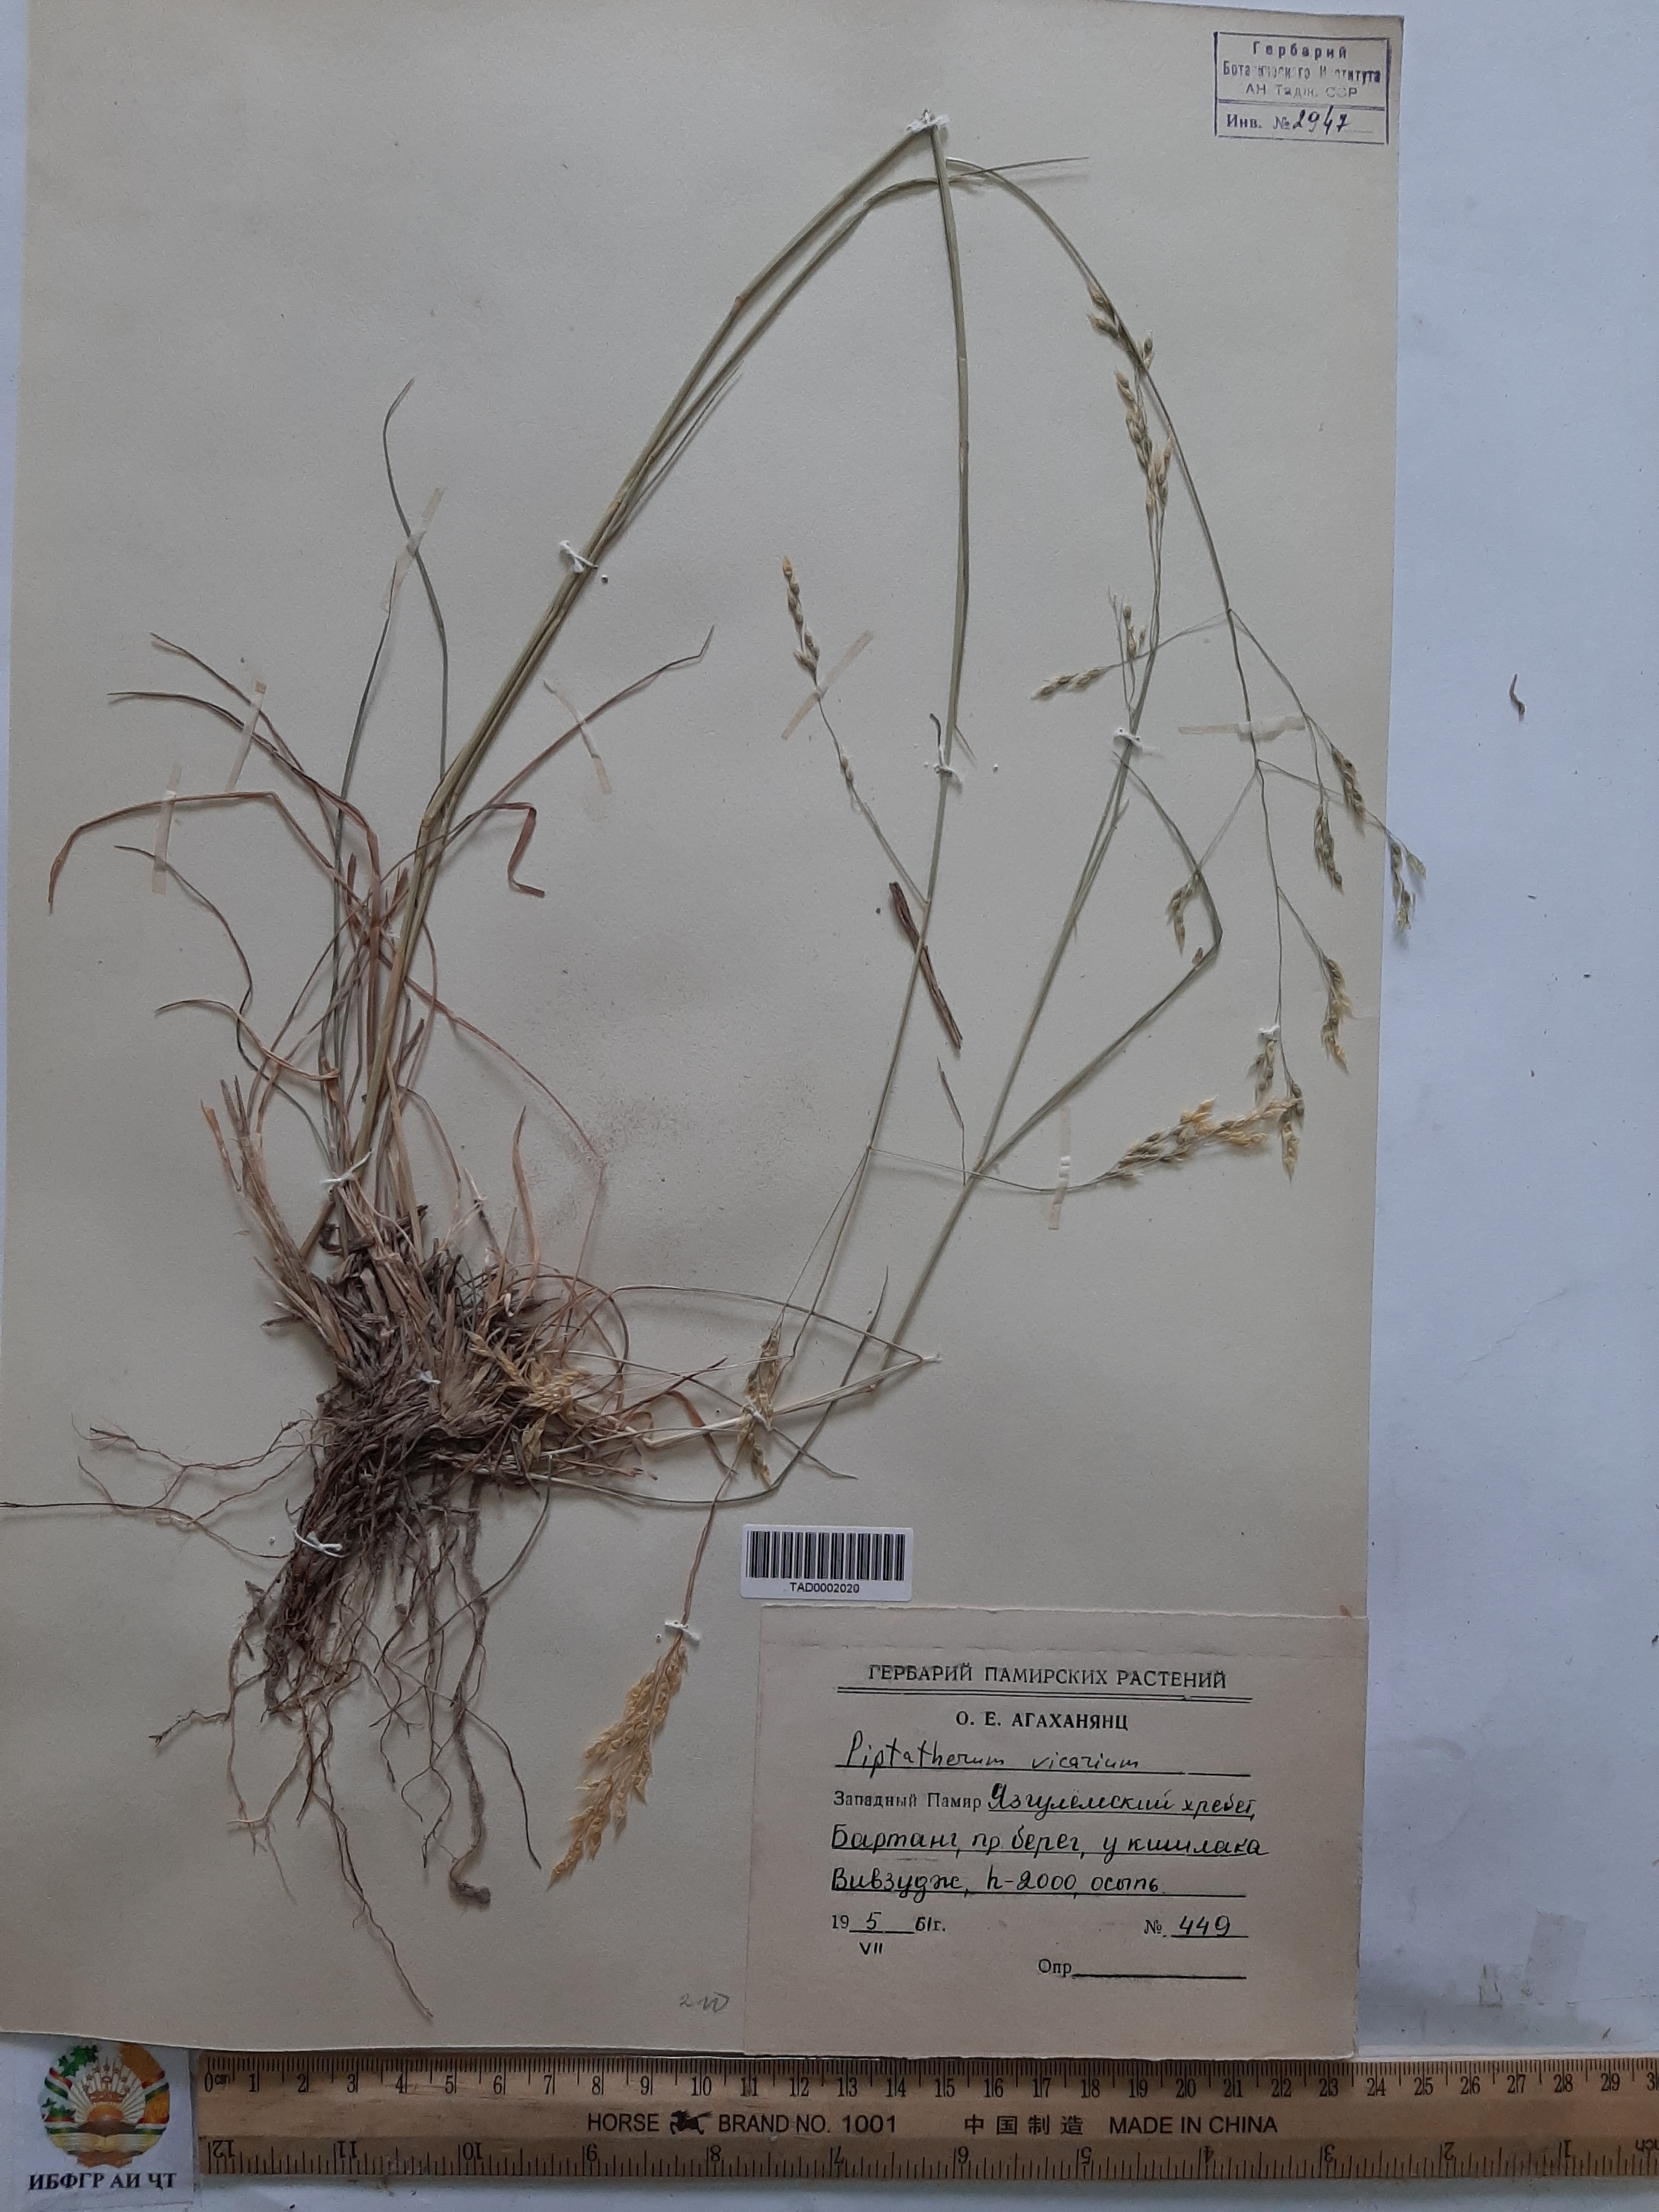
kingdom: Plantae
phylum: Tracheophyta
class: Liliopsida
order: Poales
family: Poaceae
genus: Piptatherum
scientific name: Piptatherum microcarpum
